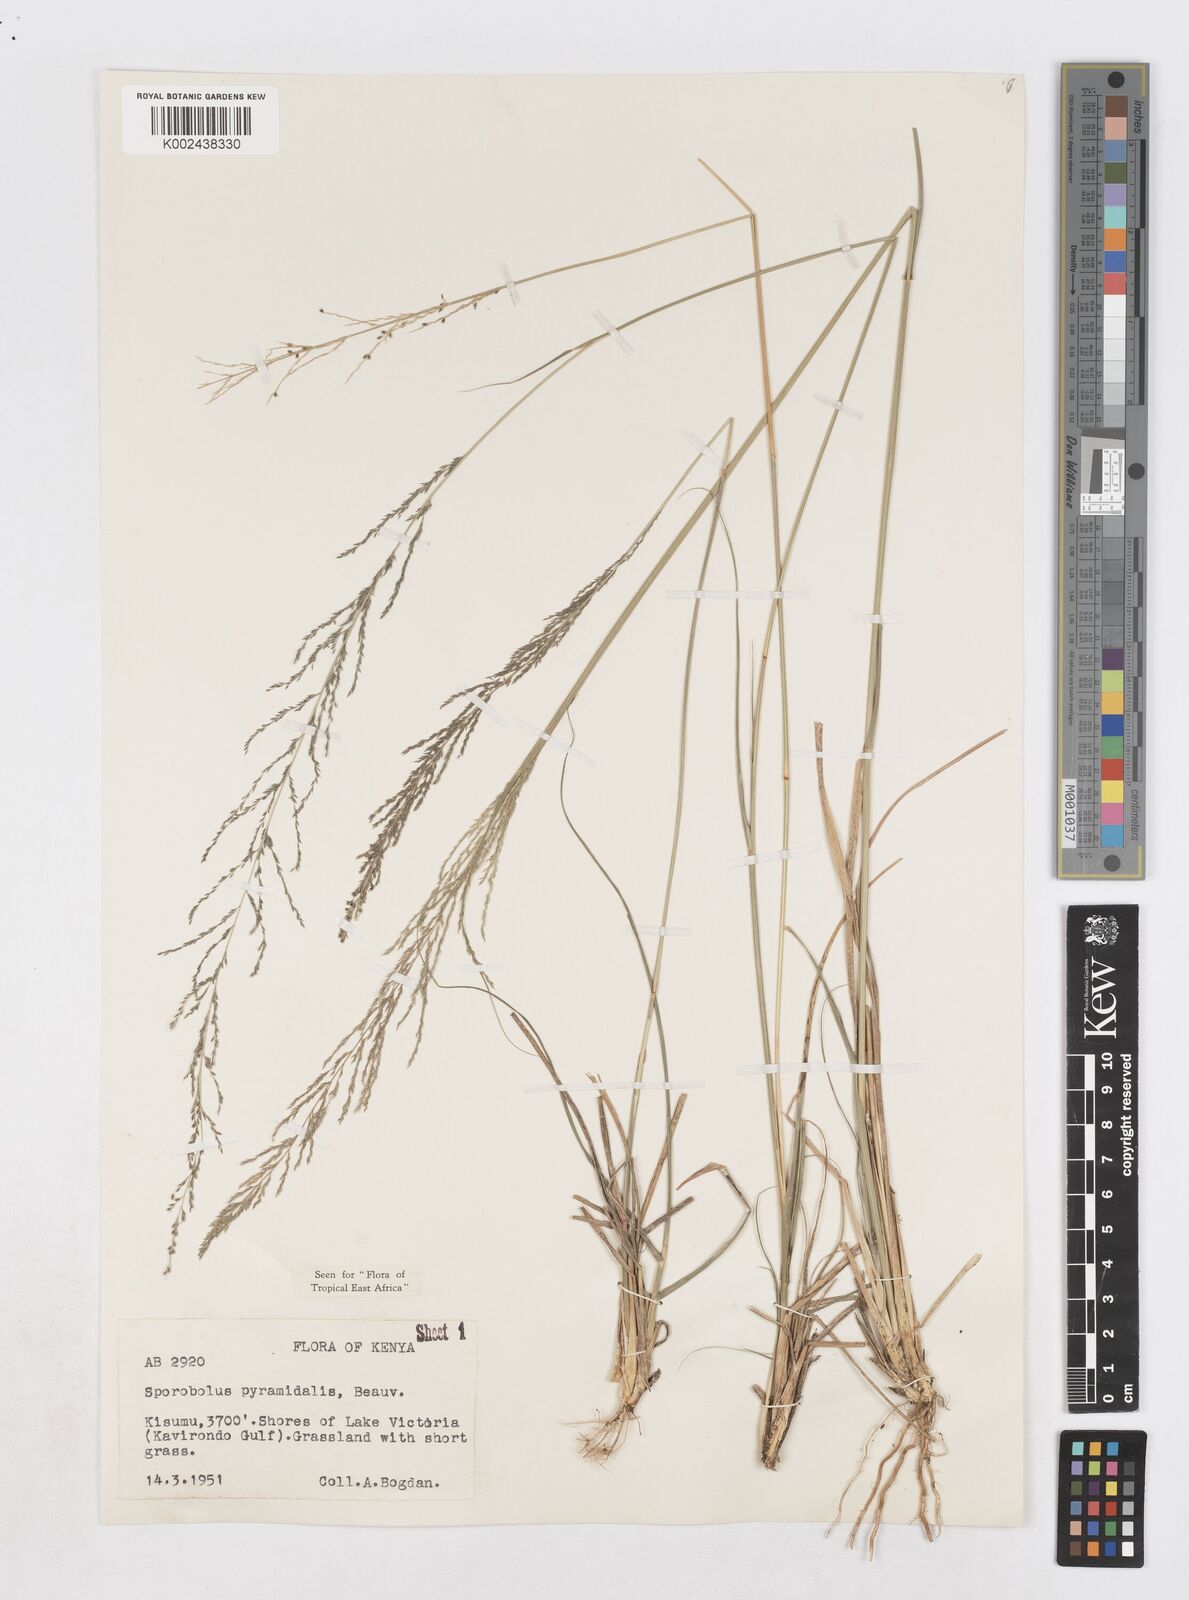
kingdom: Plantae
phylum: Tracheophyta
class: Liliopsida
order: Poales
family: Poaceae
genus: Sporobolus
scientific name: Sporobolus pyramidalis
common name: West indian dropseed
